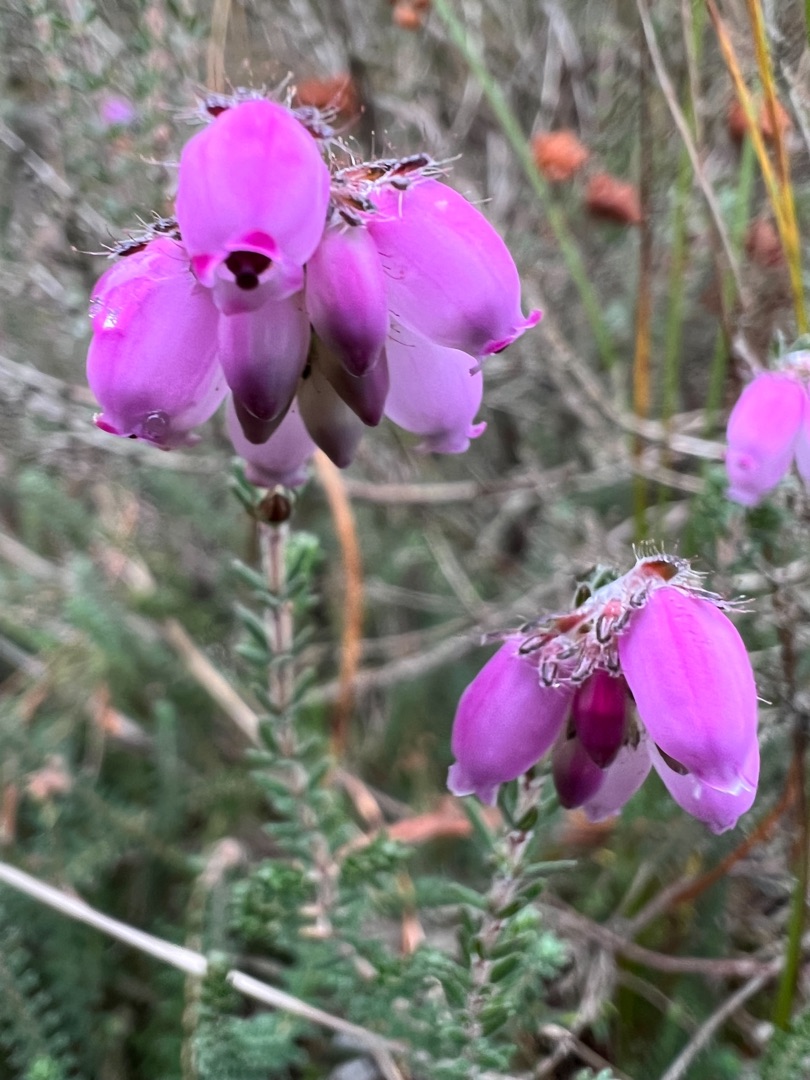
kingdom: Plantae
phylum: Tracheophyta
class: Magnoliopsida
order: Ericales
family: Ericaceae
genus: Erica
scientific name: Erica tetralix
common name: Klokkelyng
